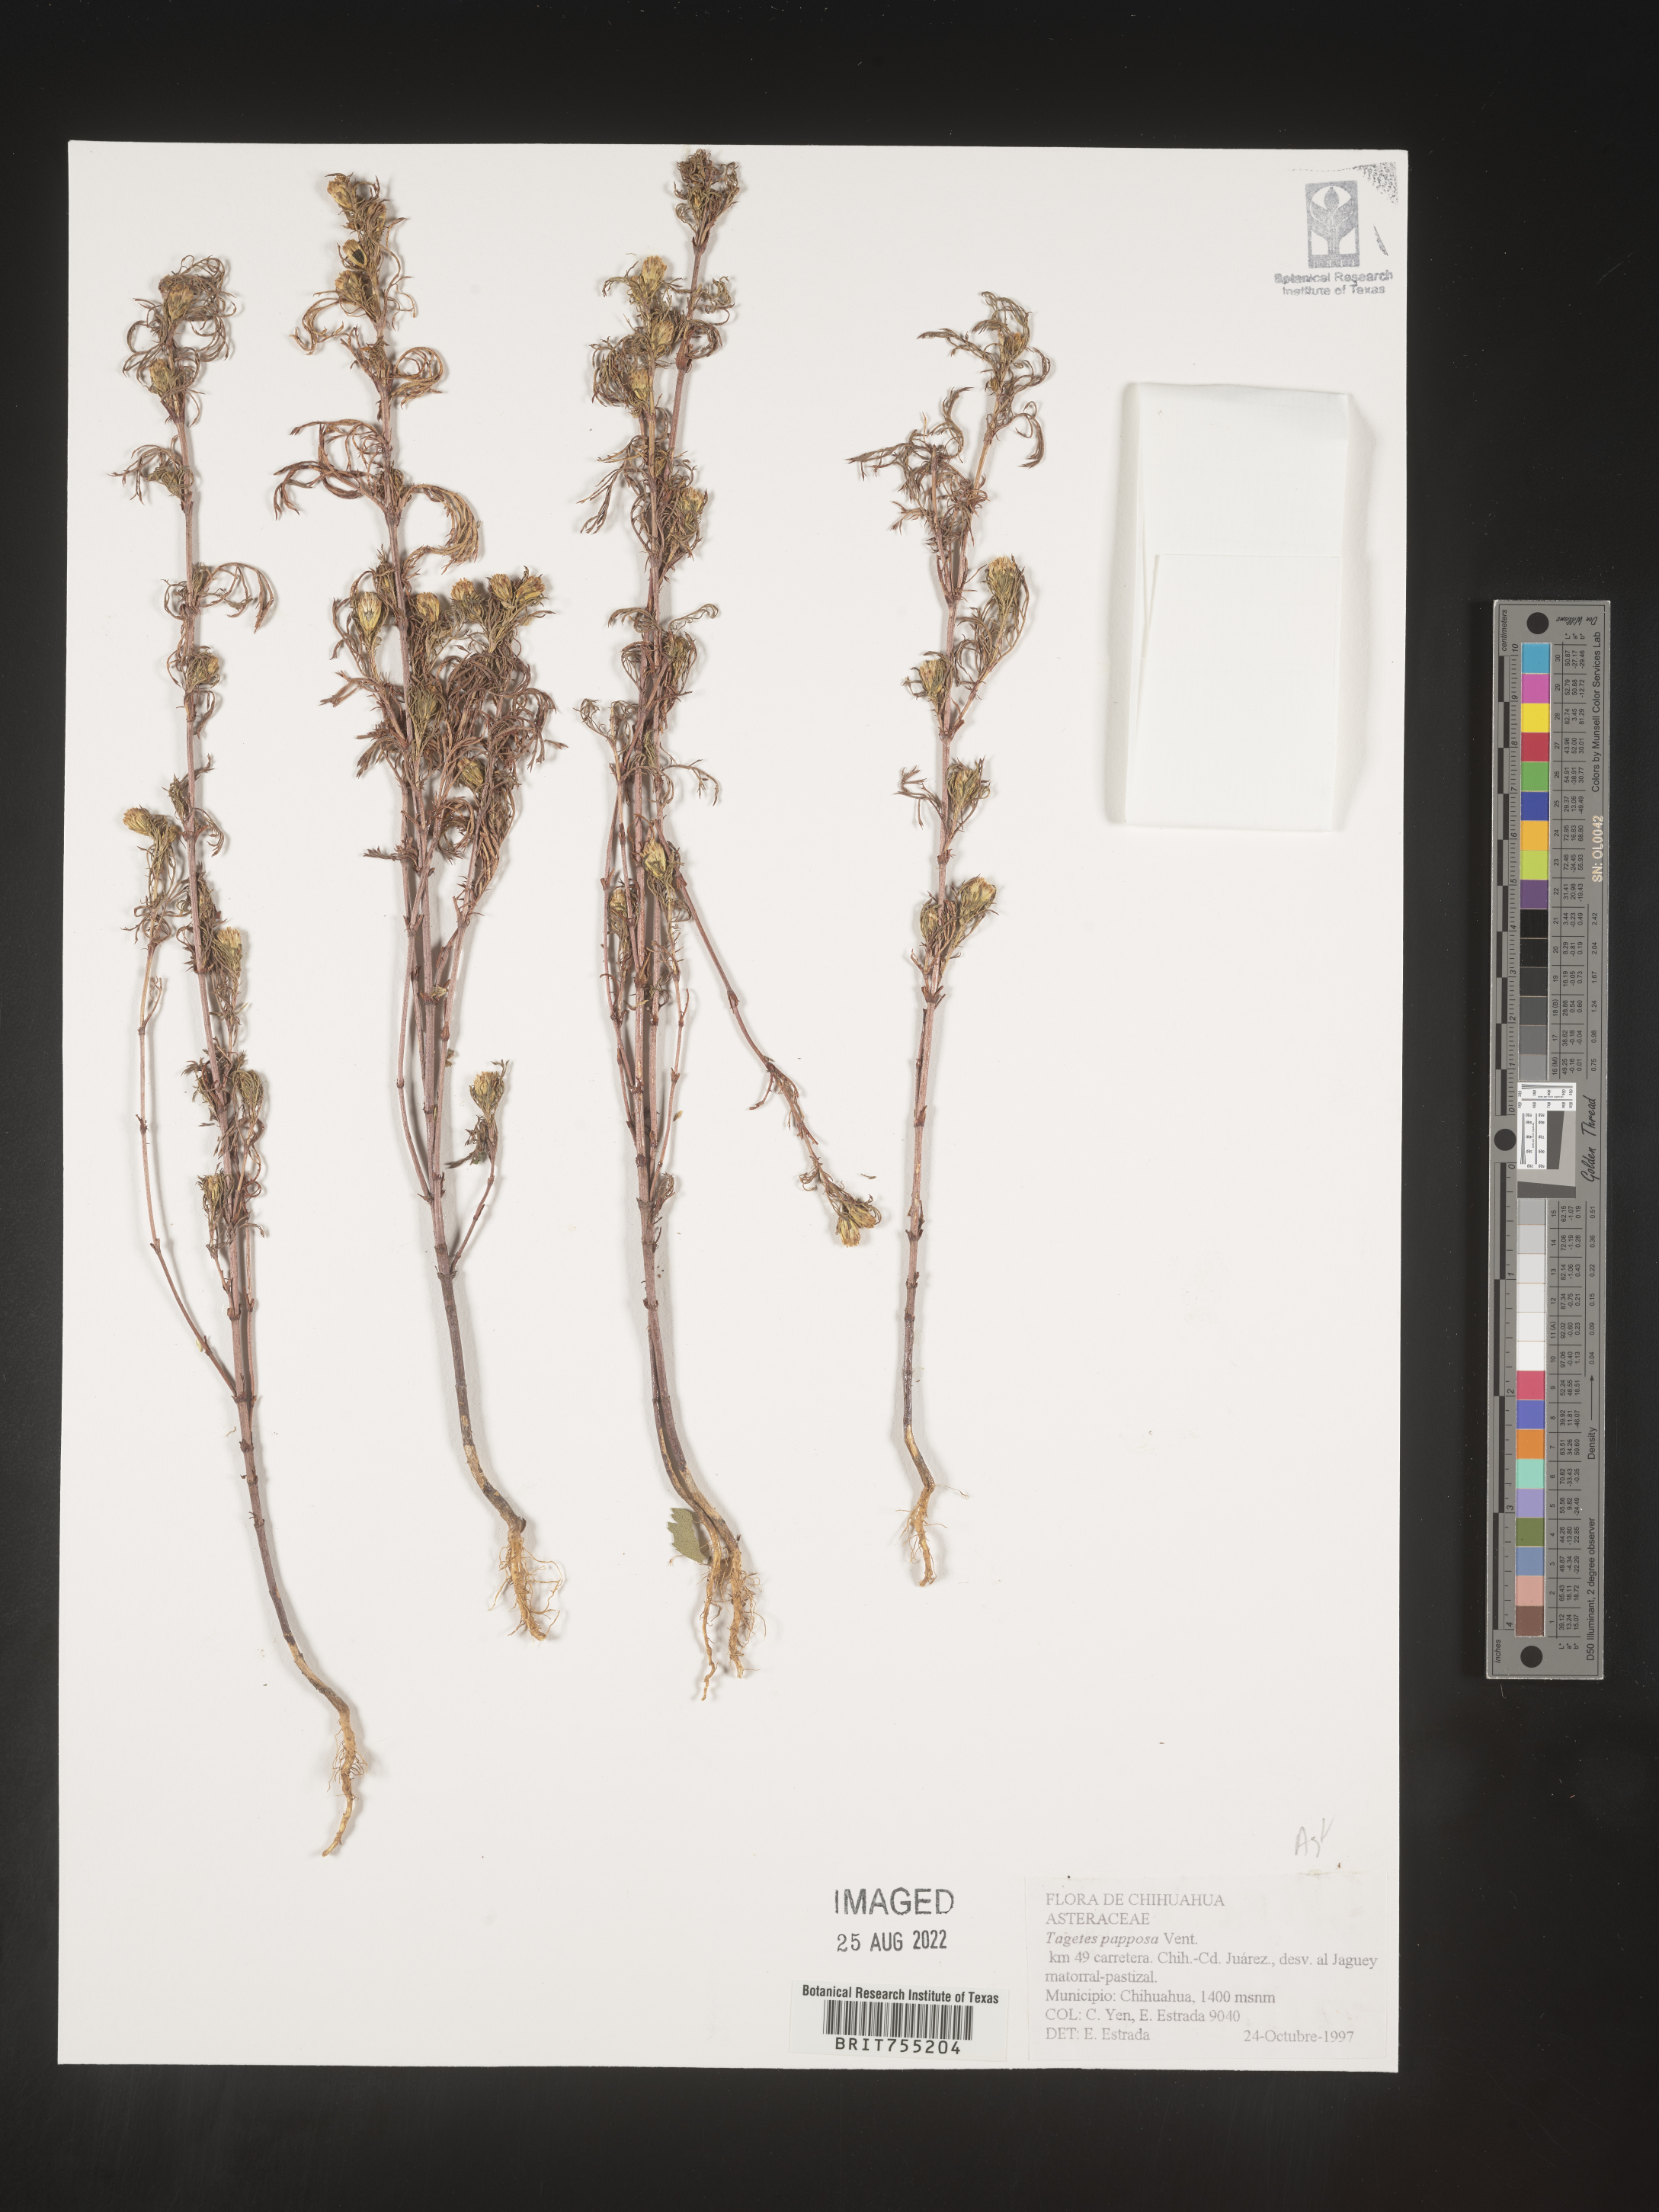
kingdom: Plantae
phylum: Tracheophyta
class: Magnoliopsida
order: Asterales
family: Asteraceae
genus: Tagetes
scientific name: Tagetes
